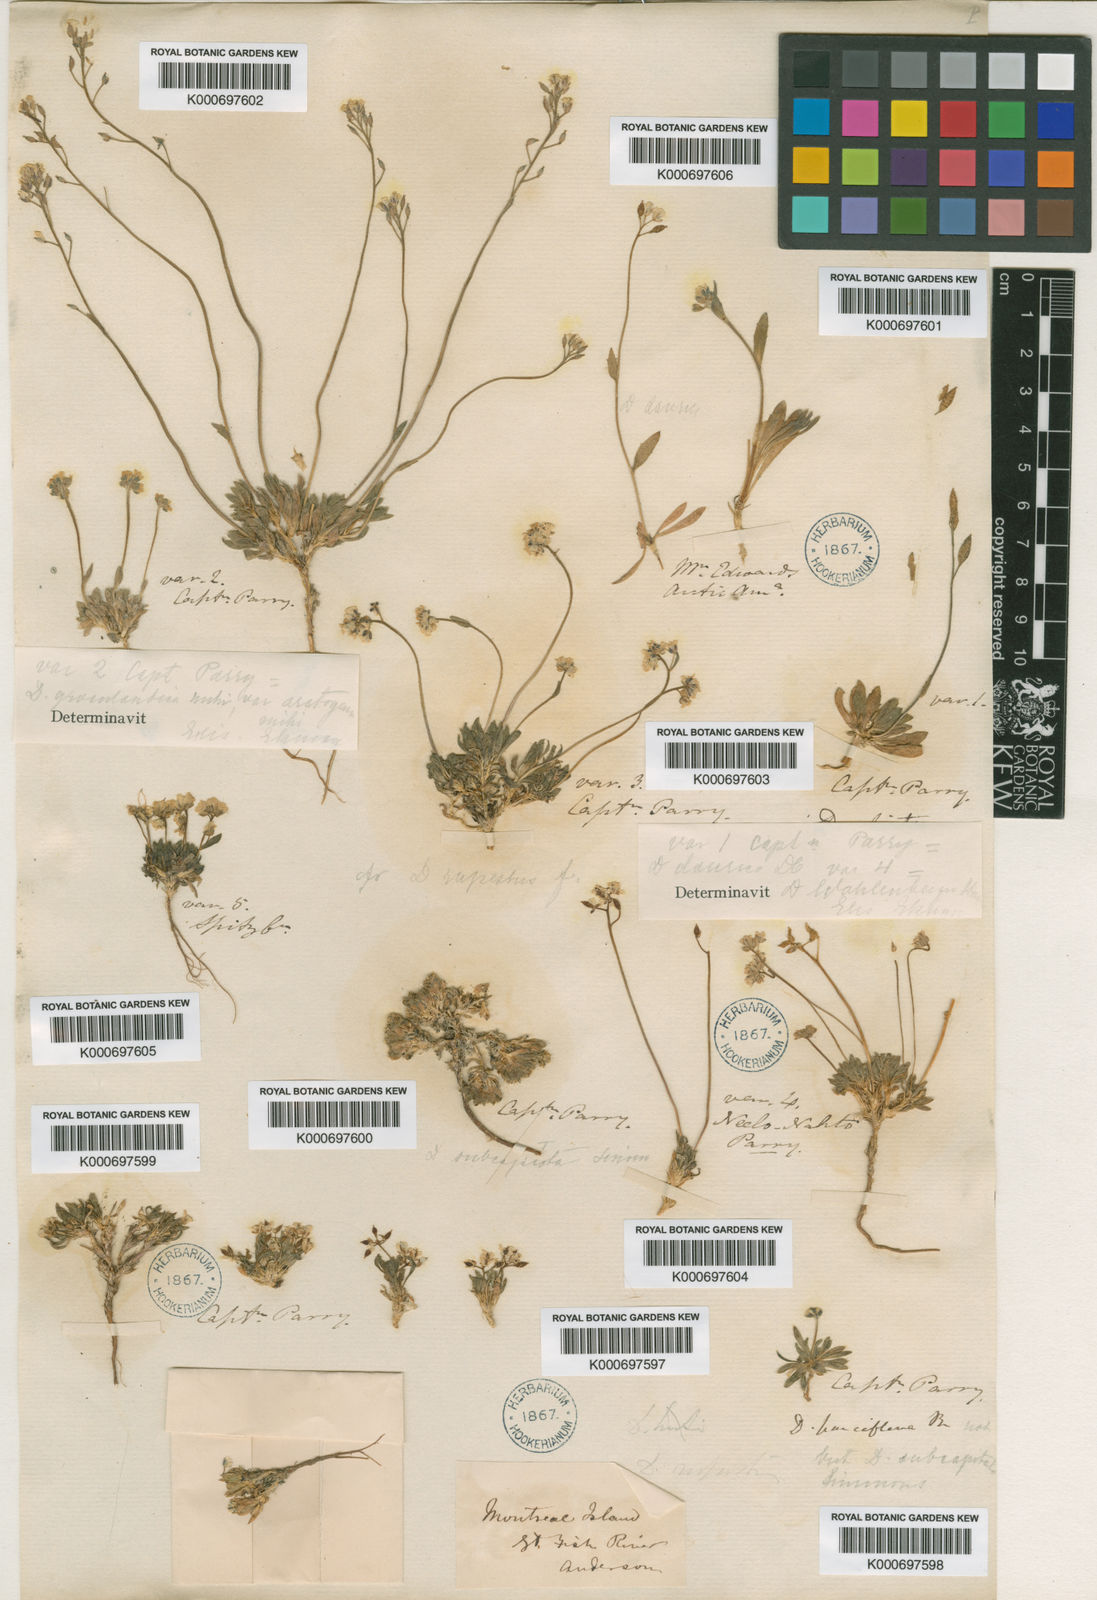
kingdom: Plantae
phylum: Tracheophyta
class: Magnoliopsida
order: Brassicales
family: Brassicaceae
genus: Draba
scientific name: Draba micropetala
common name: Small-flowered draba
